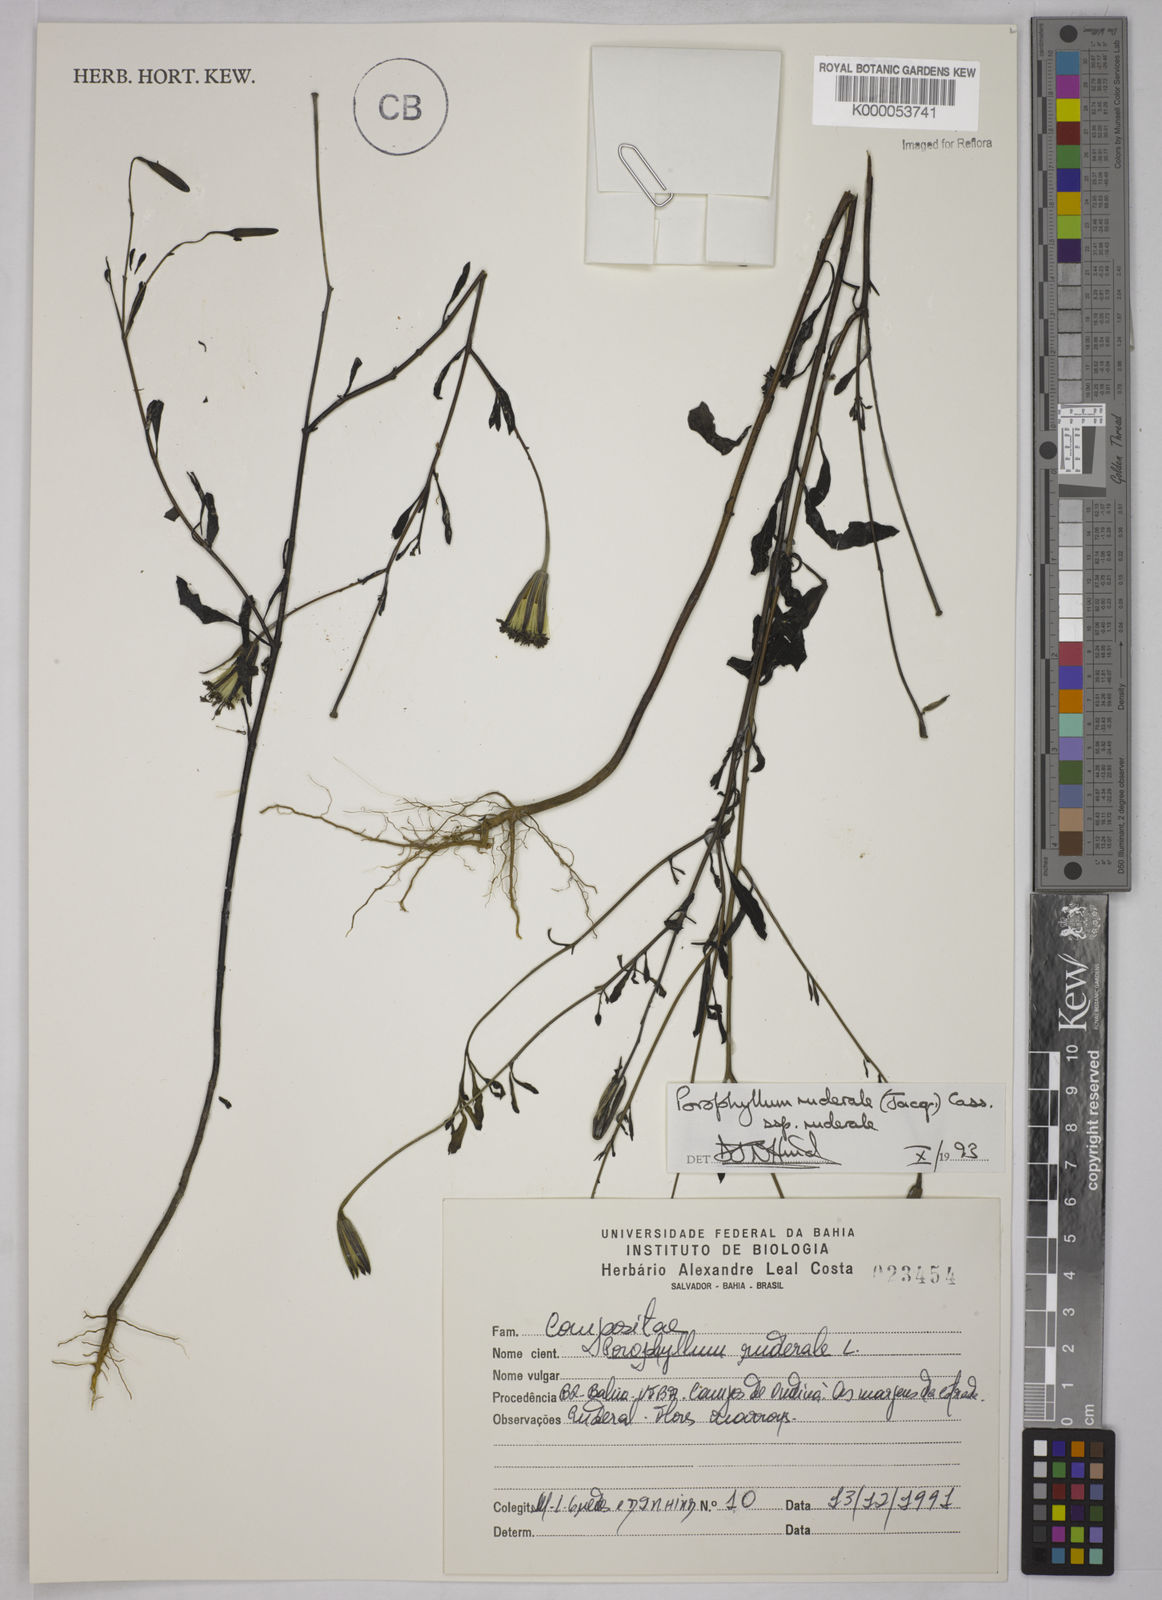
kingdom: Plantae
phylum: Tracheophyta
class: Magnoliopsida
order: Asterales
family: Asteraceae
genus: Porophyllum
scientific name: Porophyllum ruderale
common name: Yerba porosa
